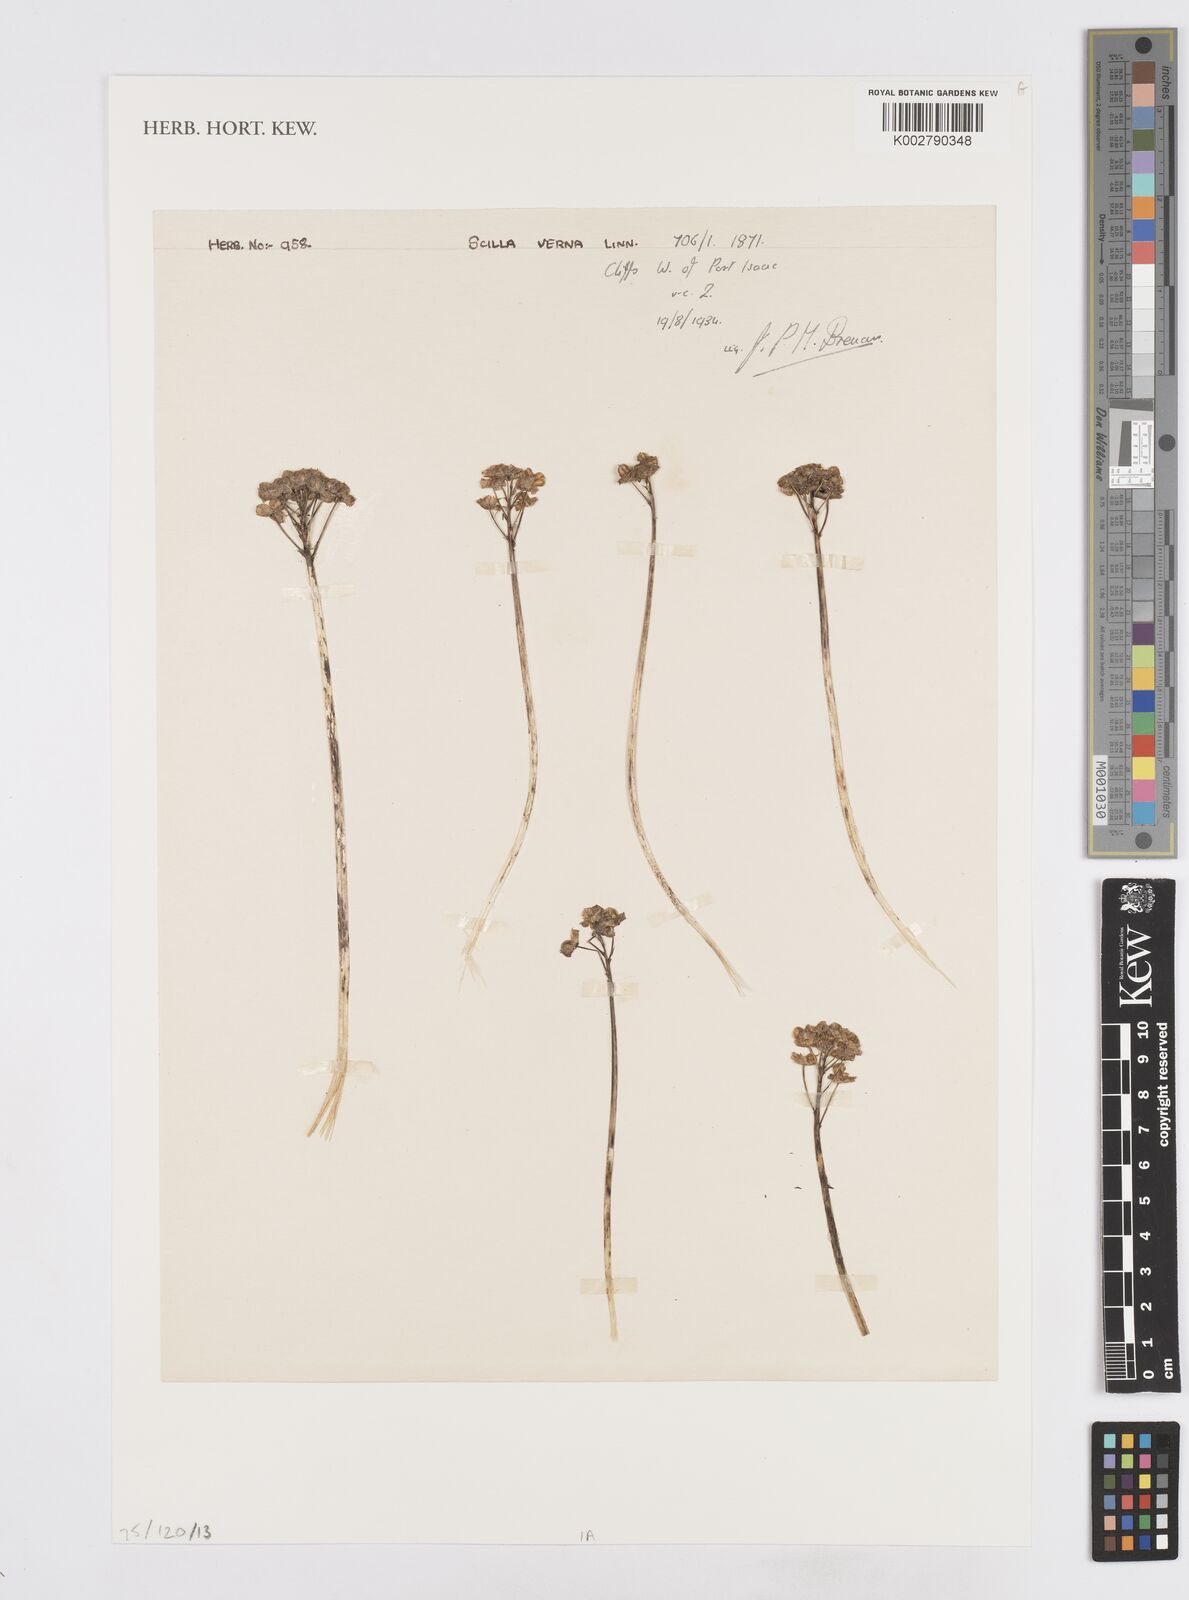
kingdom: Plantae
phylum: Tracheophyta
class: Liliopsida
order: Asparagales
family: Asparagaceae
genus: Scilla
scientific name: Scilla verna
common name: Spring squill
